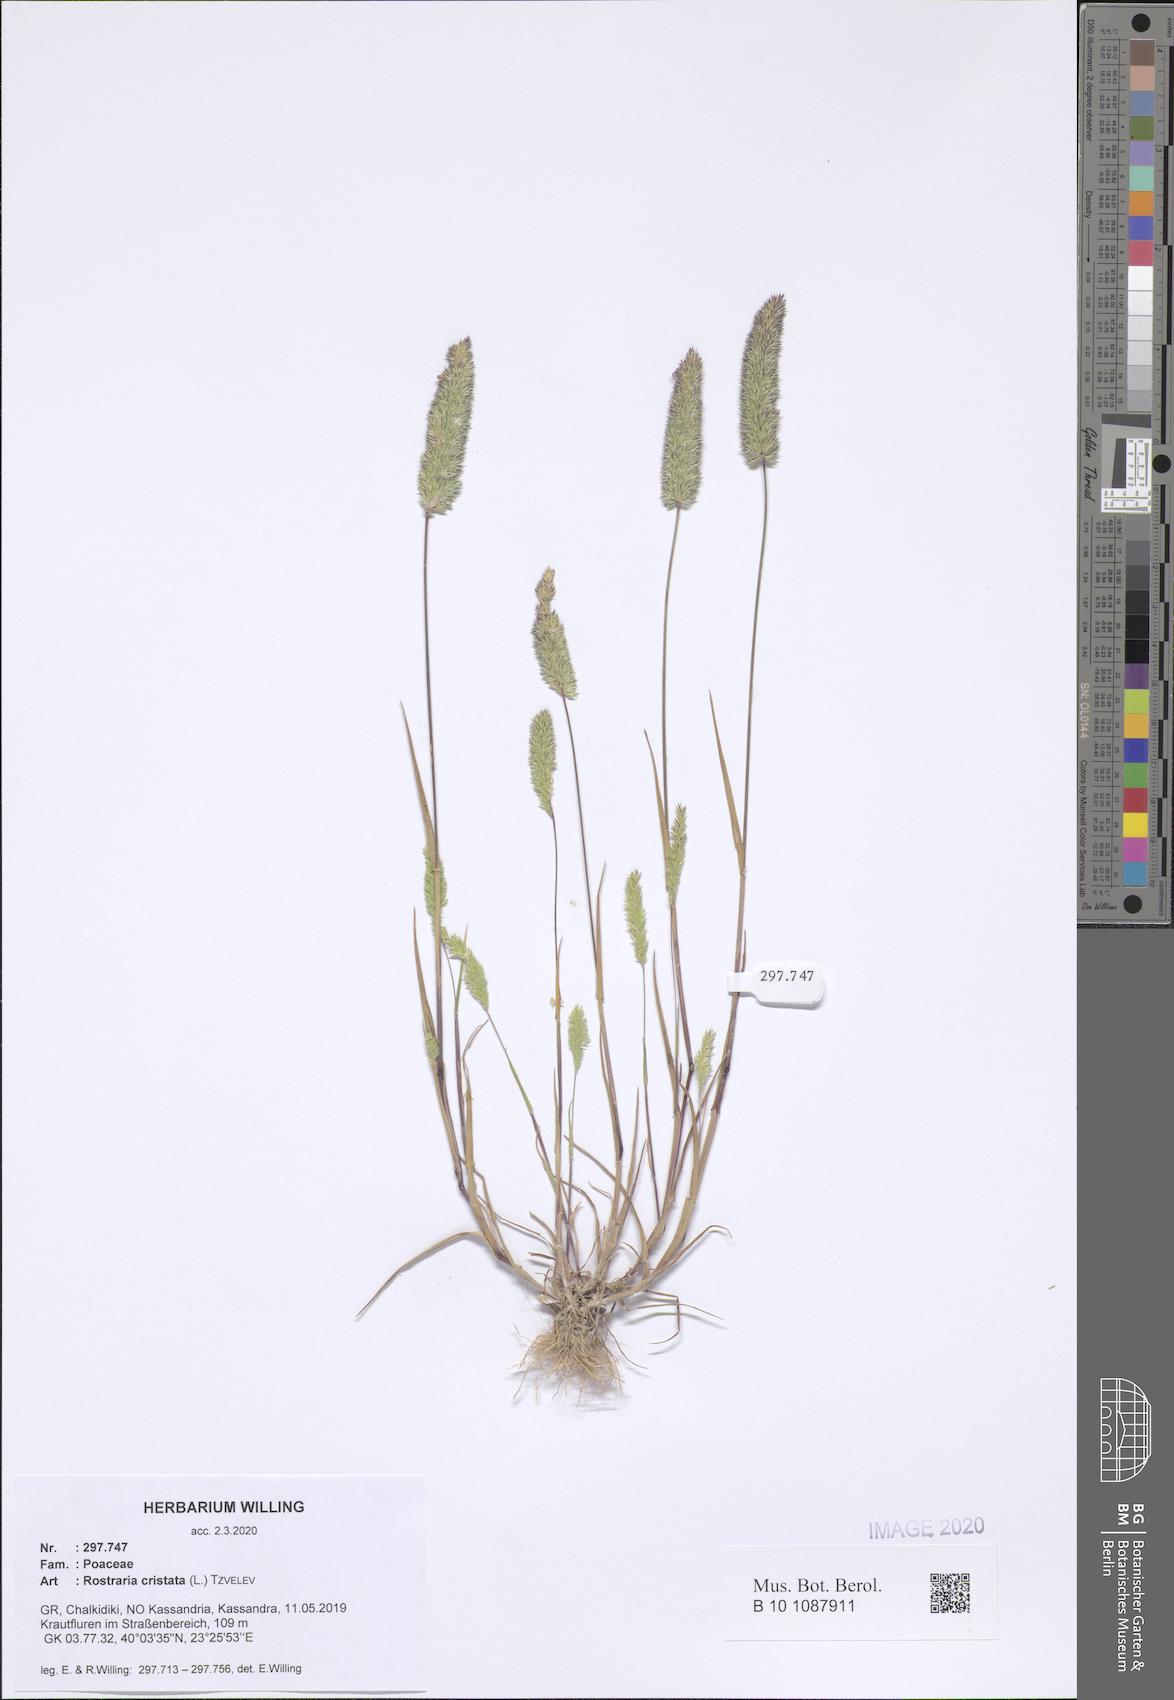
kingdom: Plantae
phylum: Tracheophyta
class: Liliopsida
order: Poales
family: Poaceae
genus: Rostraria
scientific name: Rostraria cristata
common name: Mediterranean hair-grass
